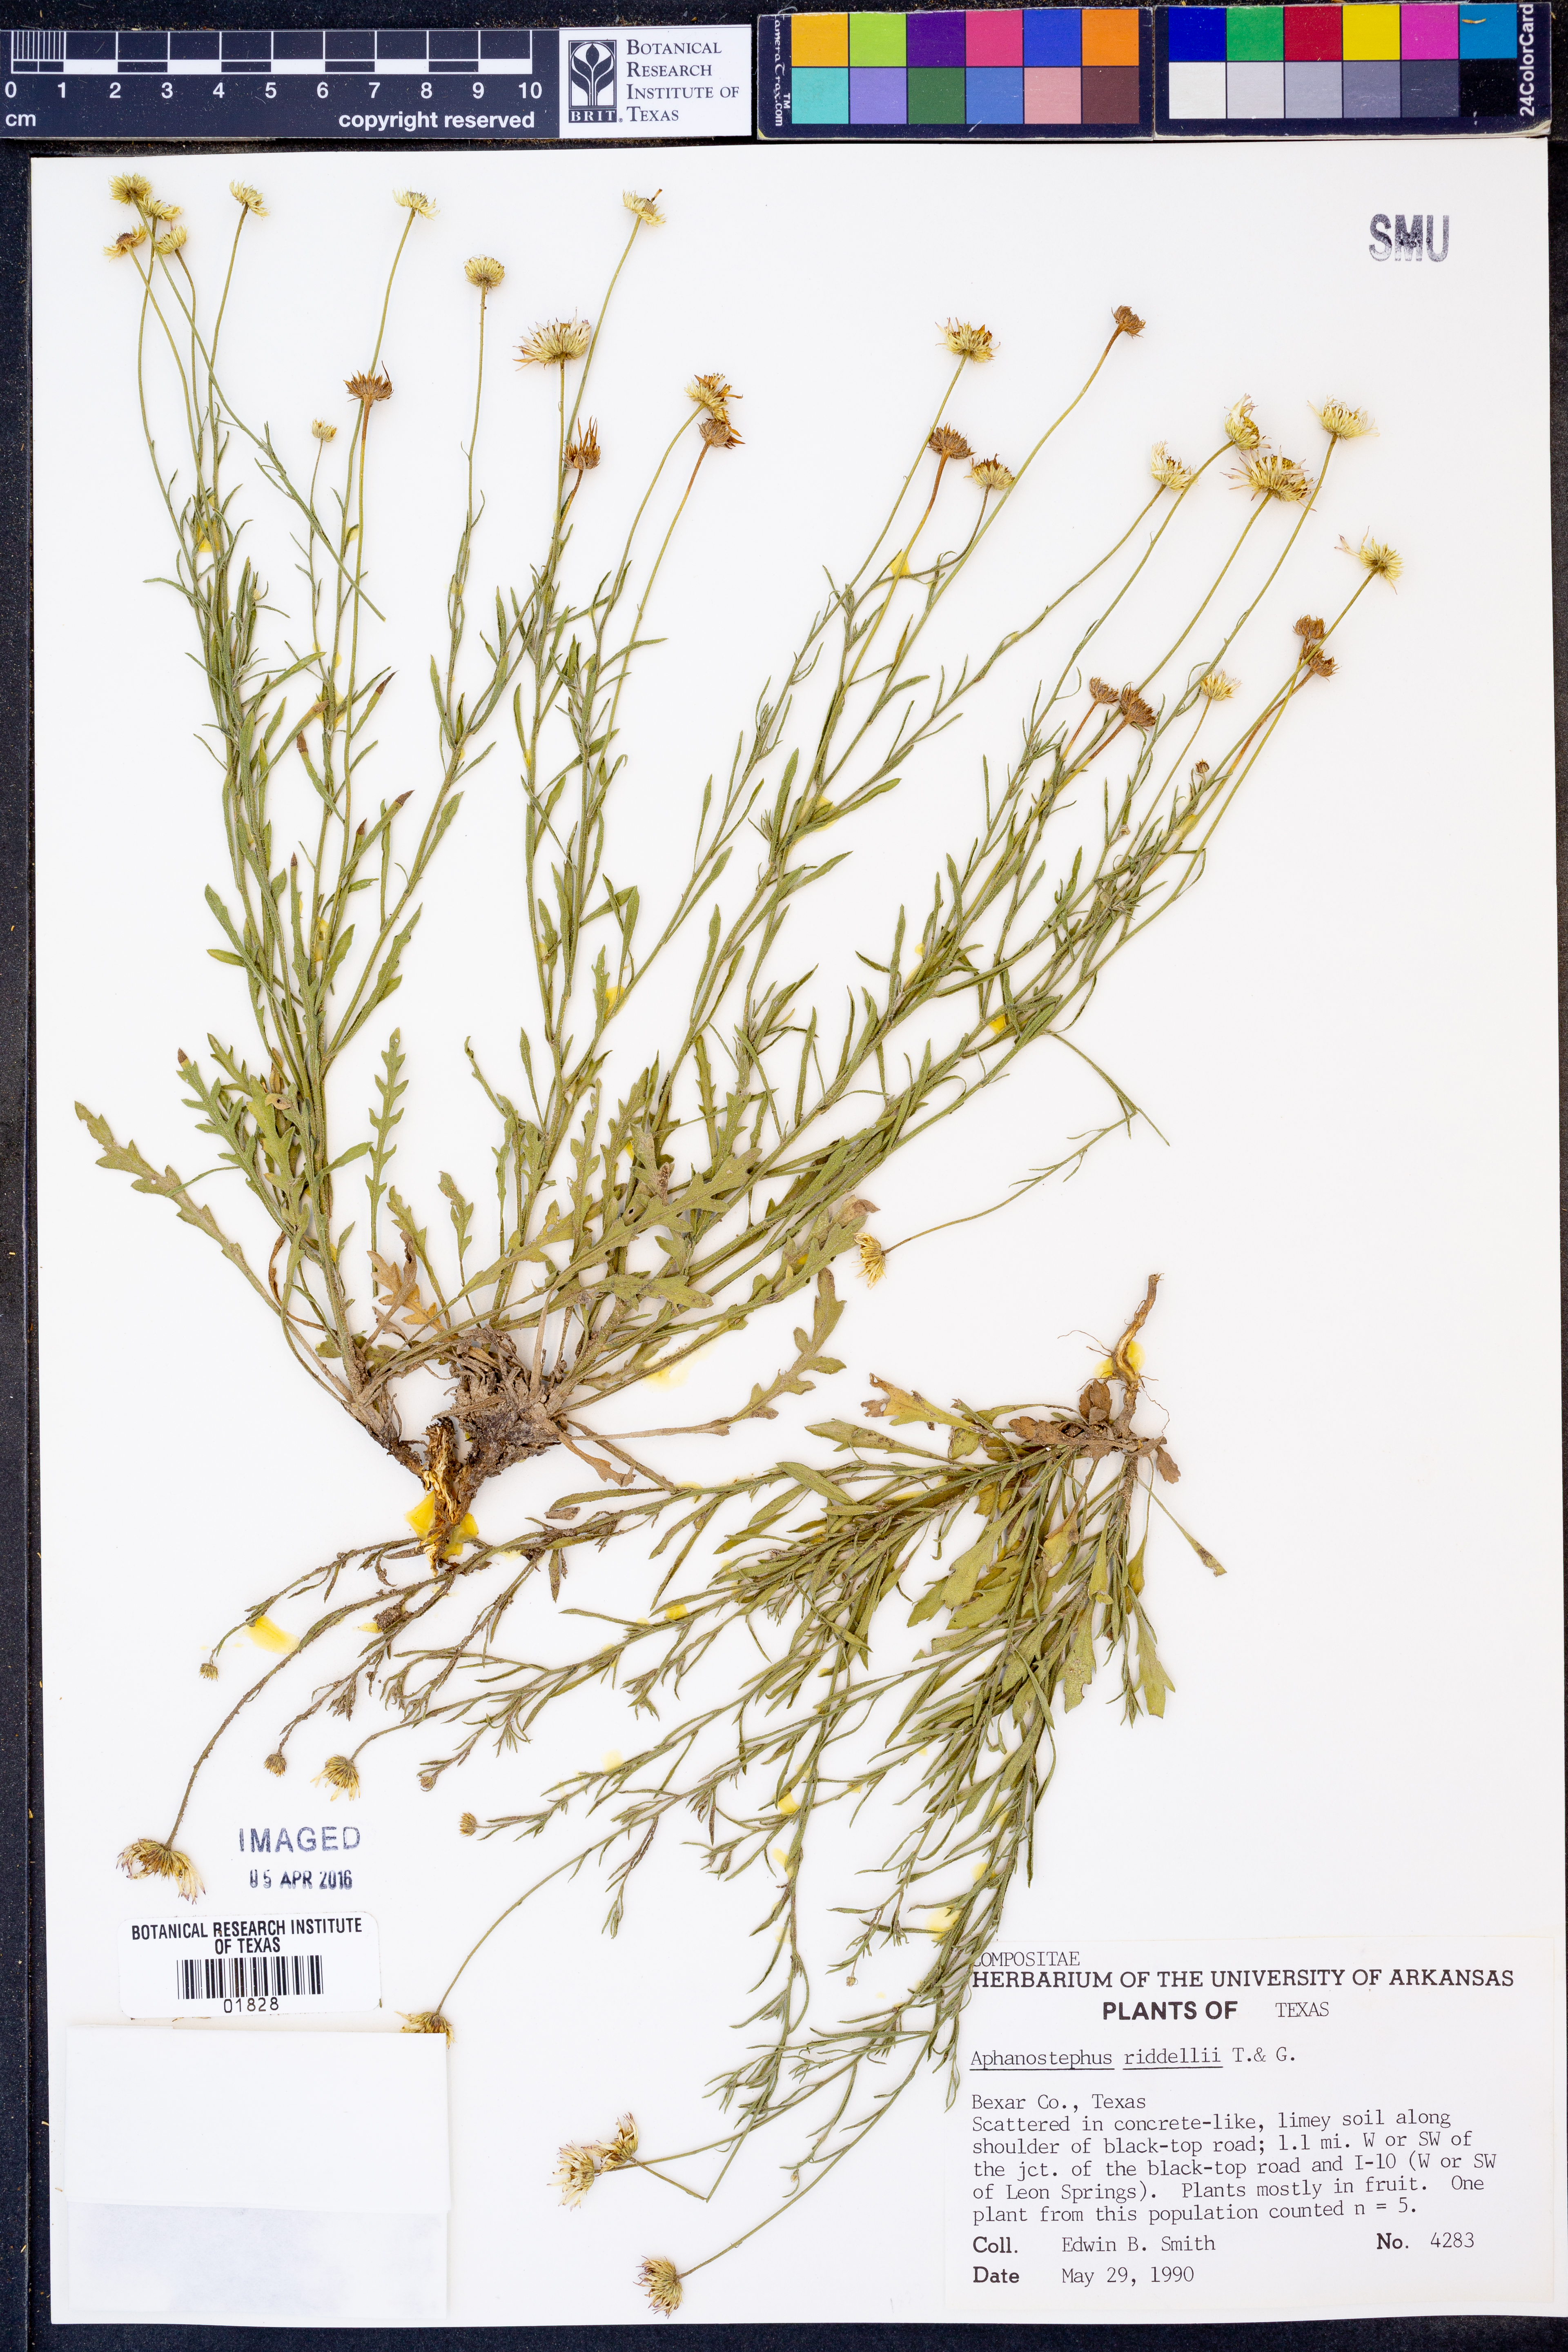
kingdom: Plantae
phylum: Tracheophyta
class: Magnoliopsida
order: Asterales
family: Asteraceae
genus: Aphanostephus
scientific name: Aphanostephus riddellii
